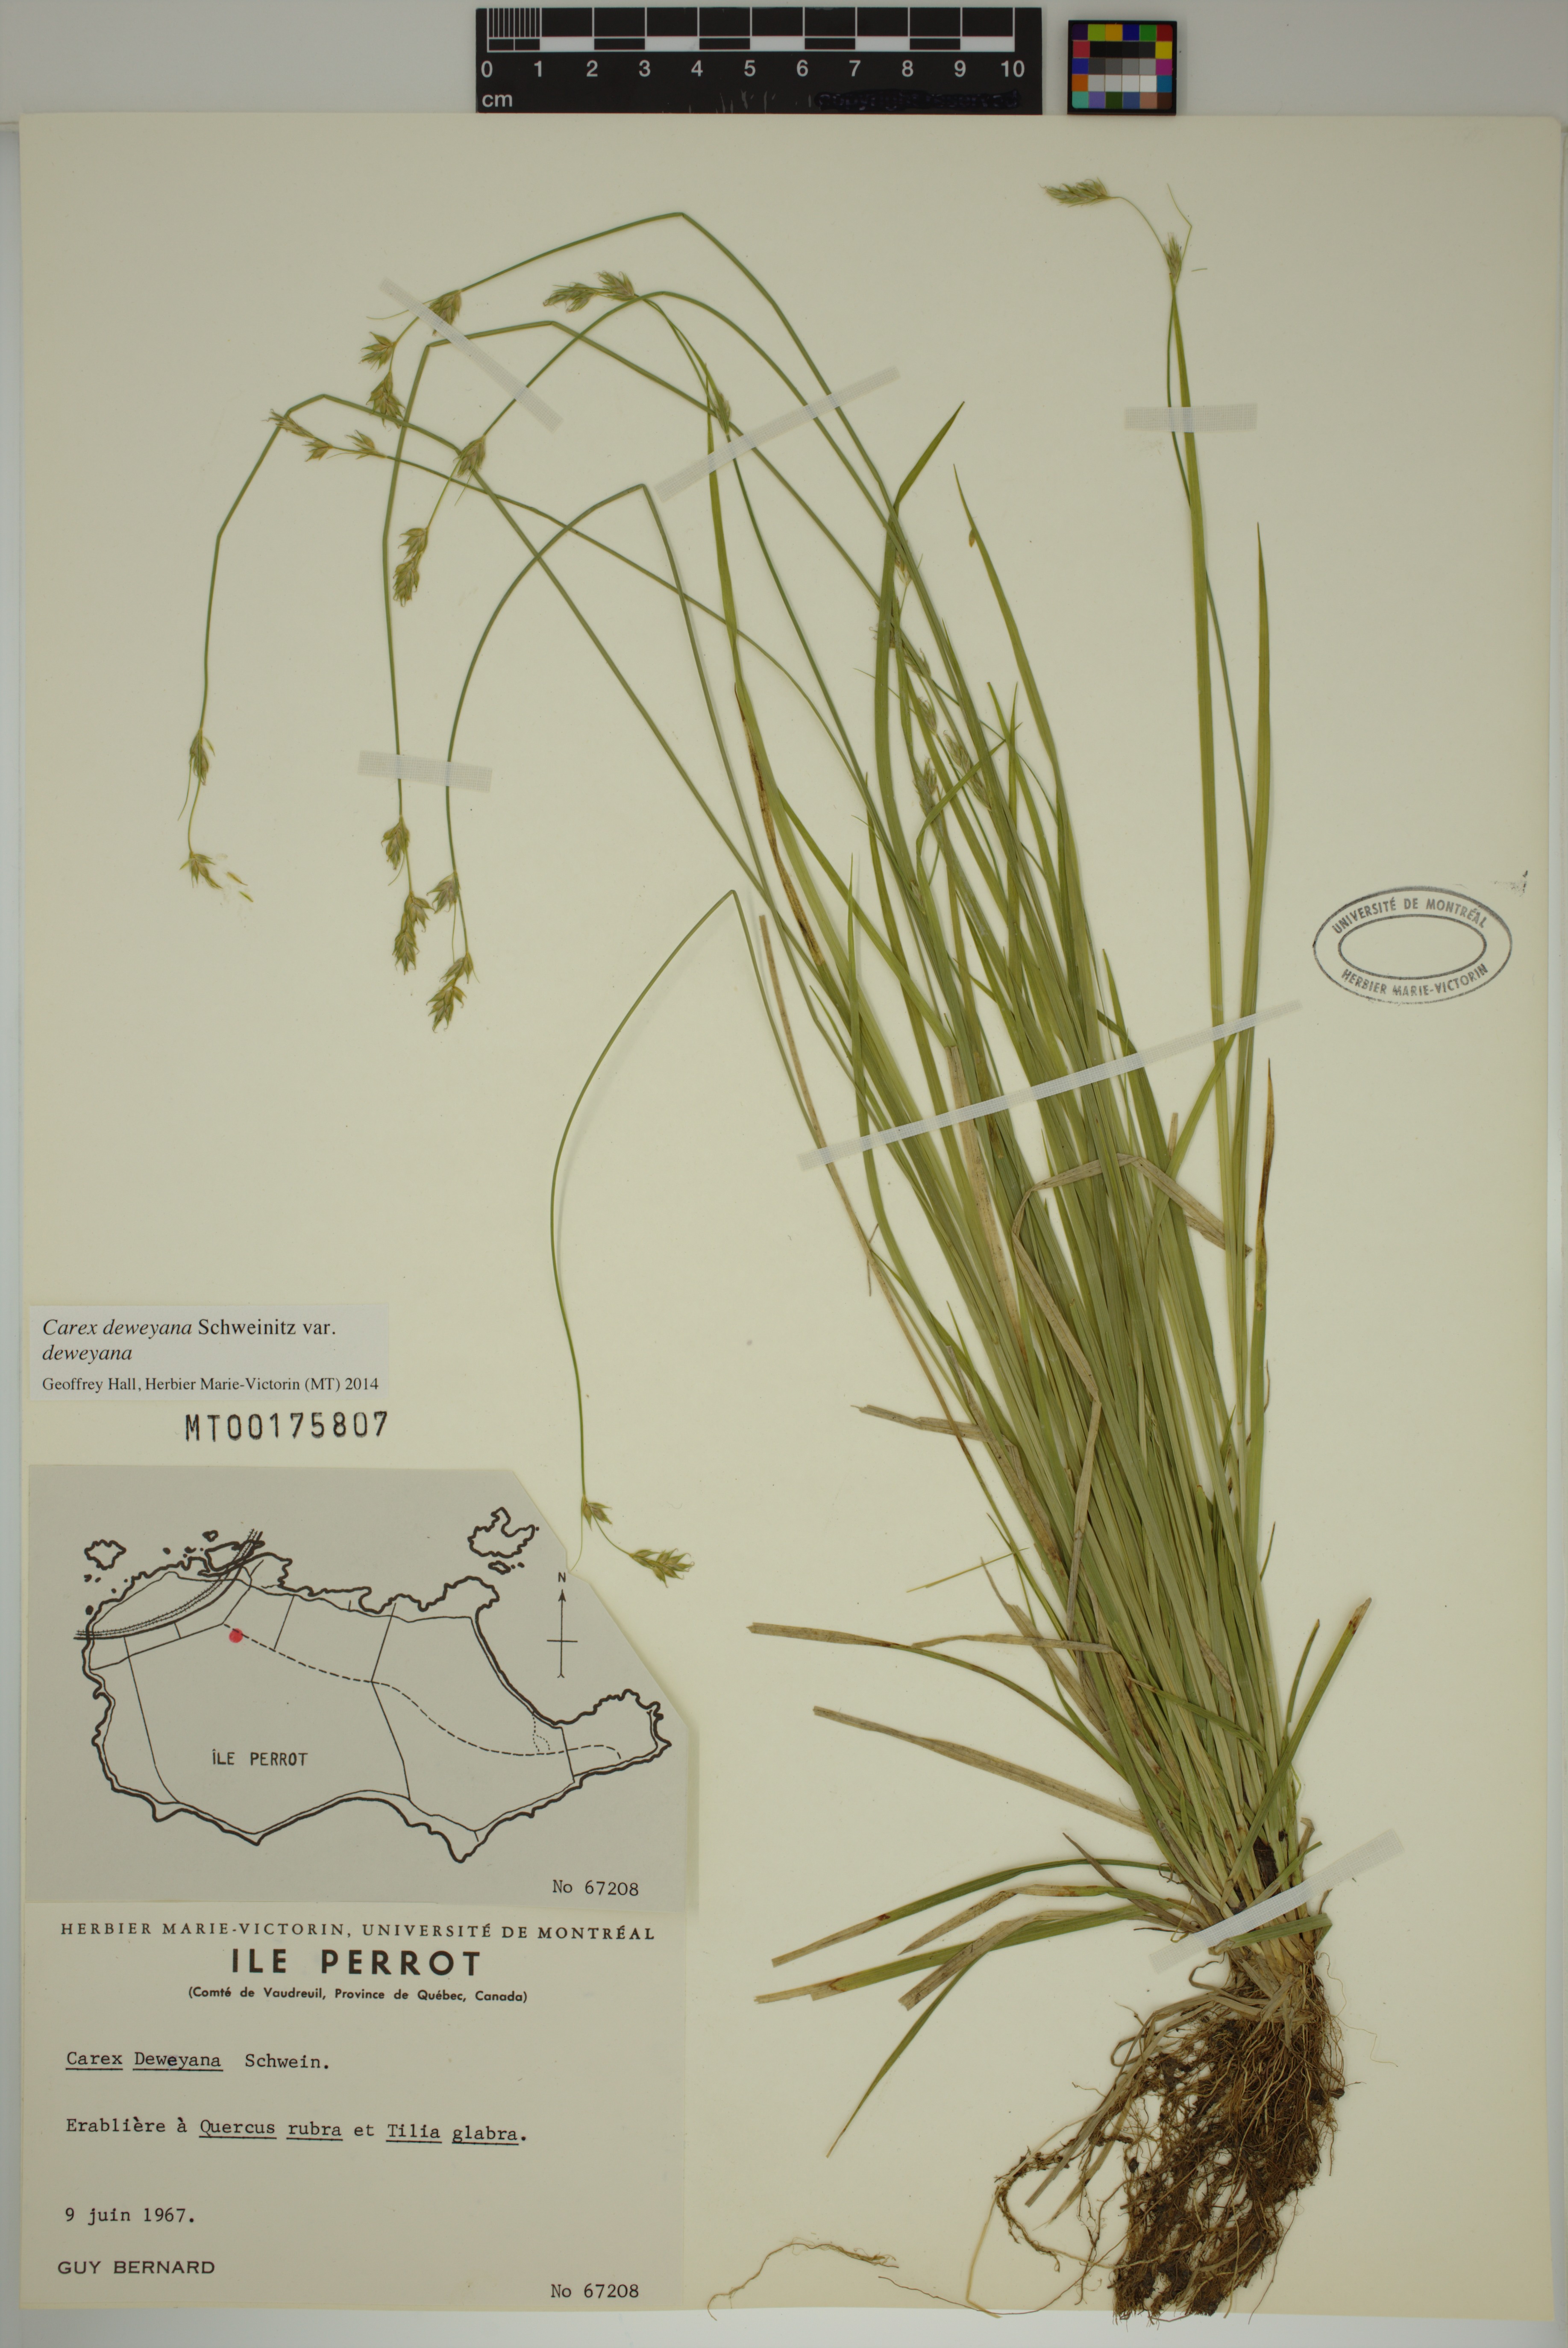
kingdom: Plantae
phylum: Tracheophyta
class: Liliopsida
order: Poales
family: Cyperaceae
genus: Carex
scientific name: Carex deweyana
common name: Dewey's sedge
